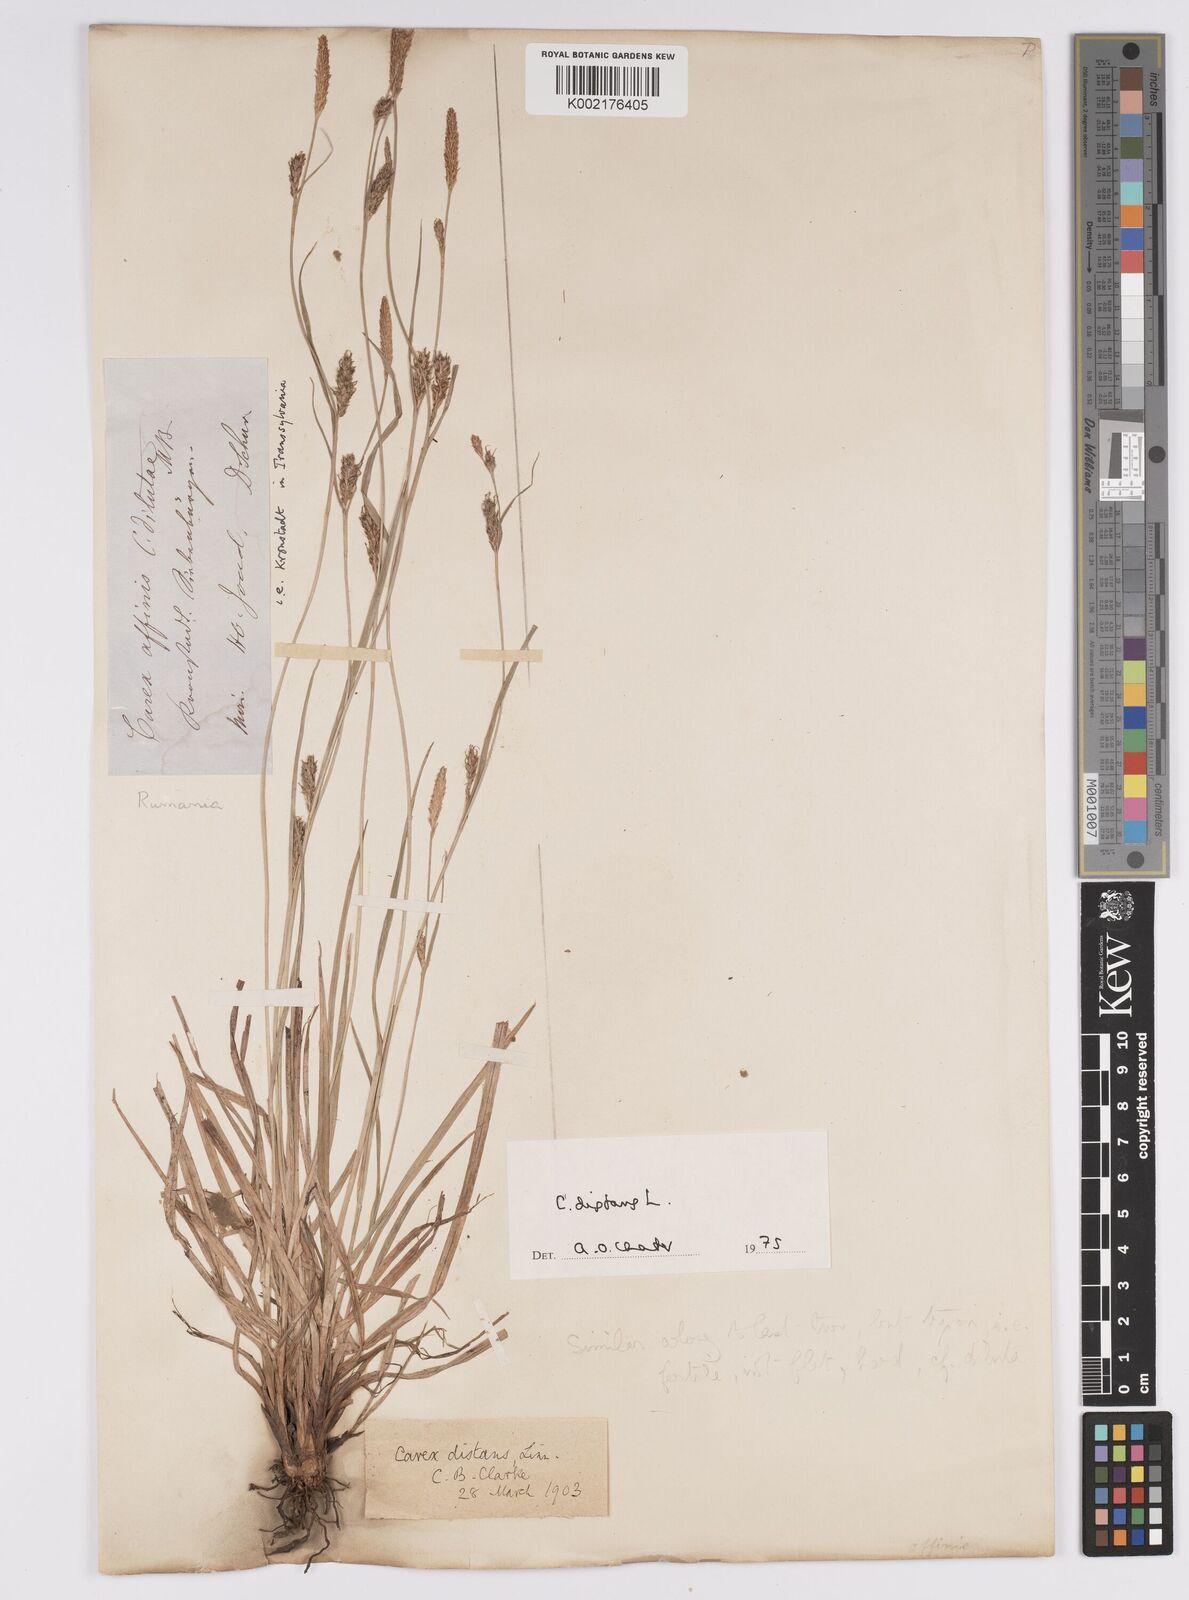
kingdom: Plantae
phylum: Tracheophyta
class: Liliopsida
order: Poales
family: Cyperaceae
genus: Carex
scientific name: Carex distans
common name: Distant sedge
